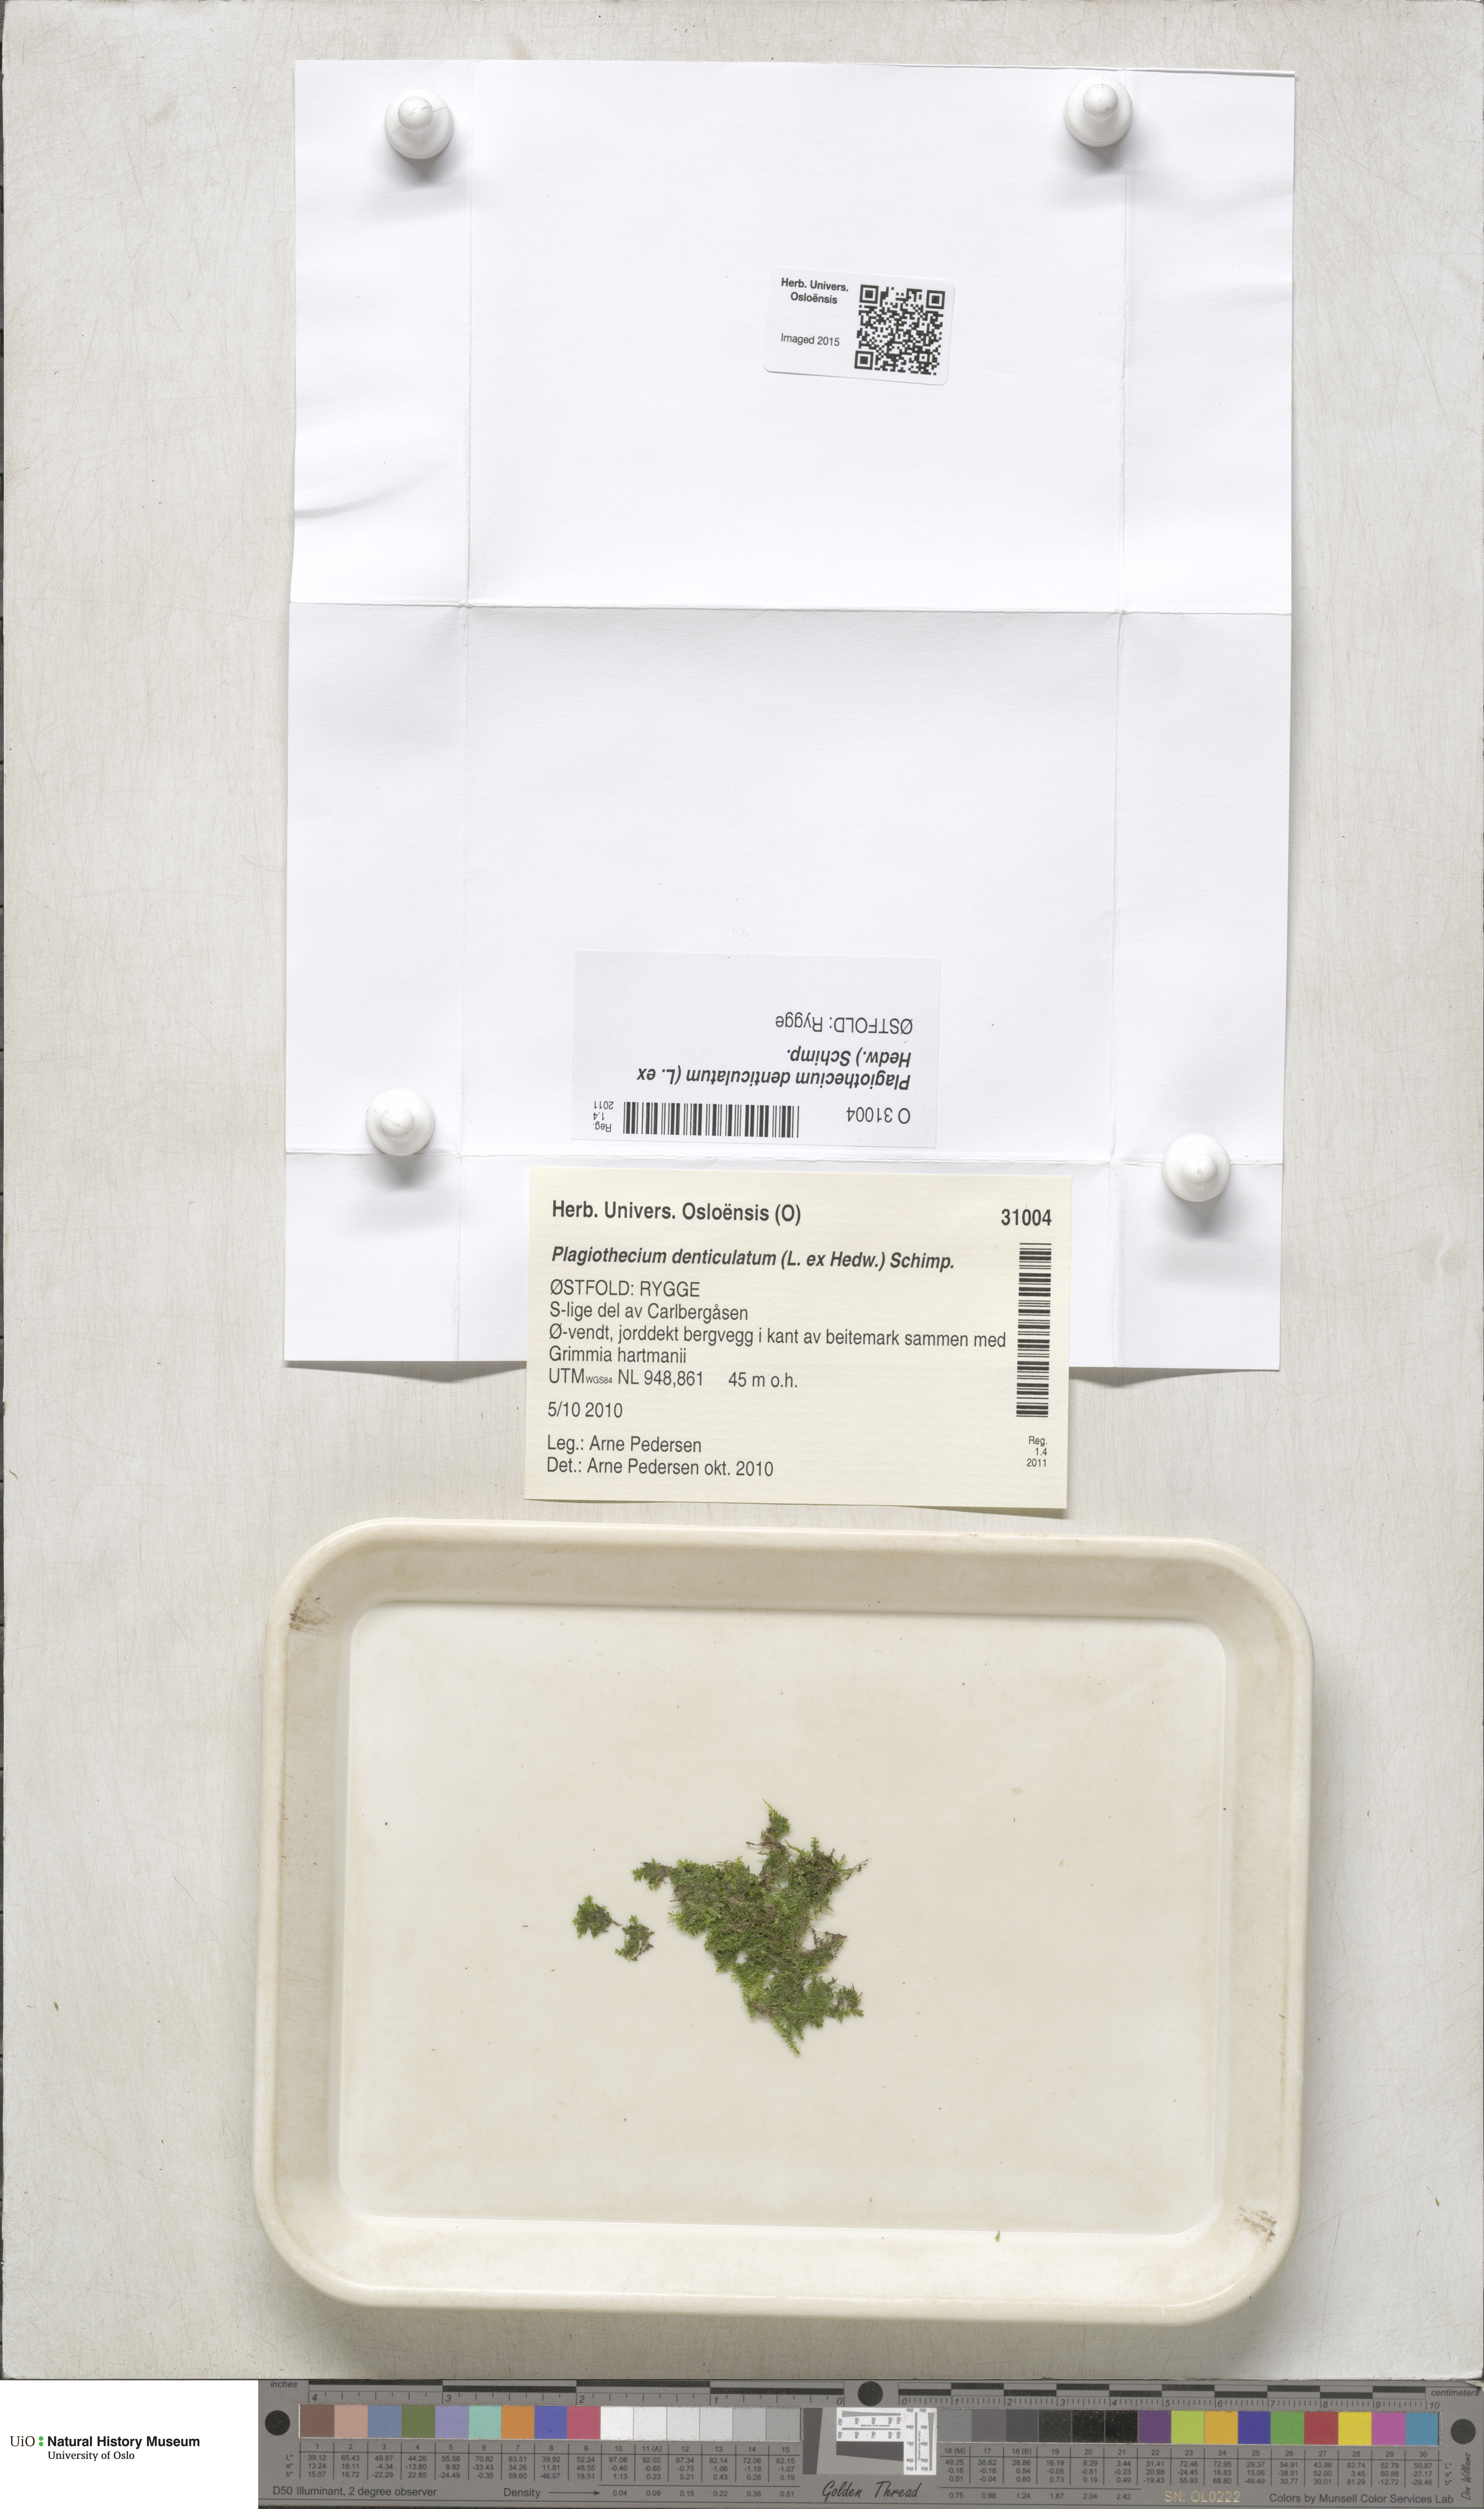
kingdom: Plantae
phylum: Bryophyta
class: Bryopsida
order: Hypnales
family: Plagiotheciaceae
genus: Plagiothecium
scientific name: Plagiothecium denticulatum
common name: Dented silk moss
